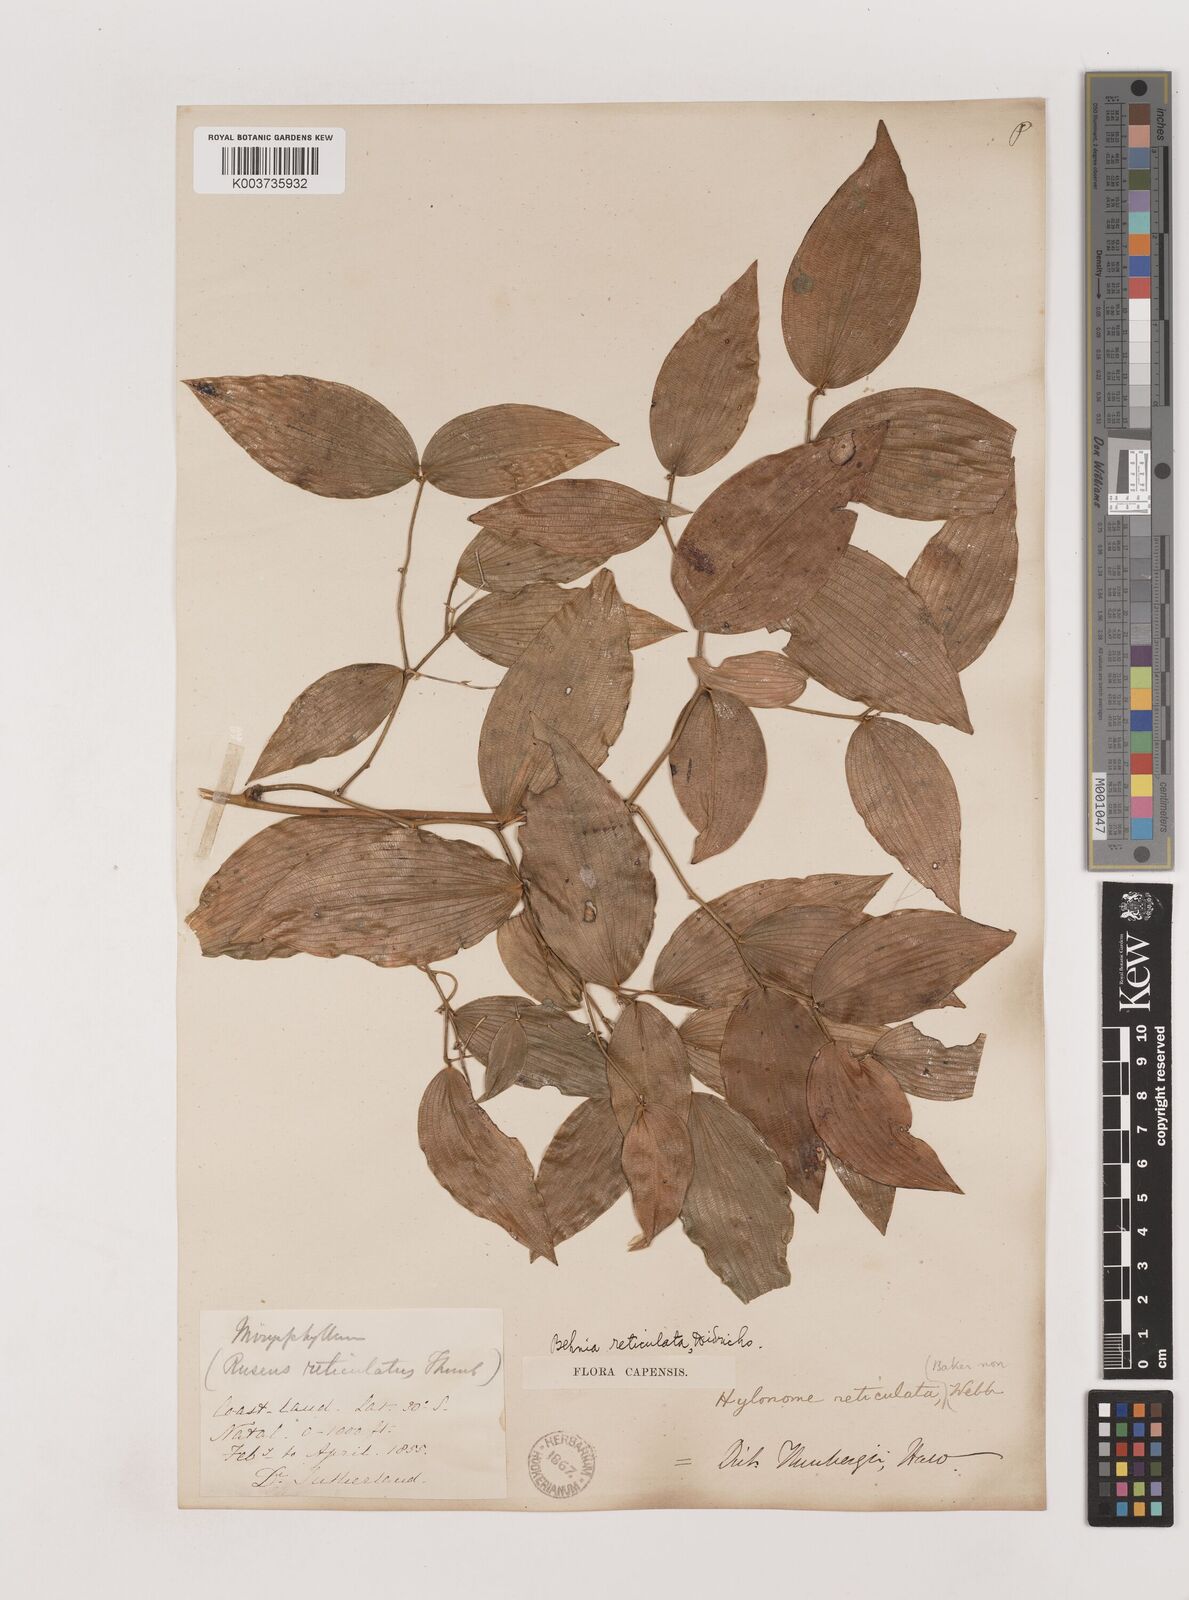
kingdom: Plantae
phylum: Tracheophyta
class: Liliopsida
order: Asparagales
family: Asparagaceae
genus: Behnia
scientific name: Behnia reticulata
